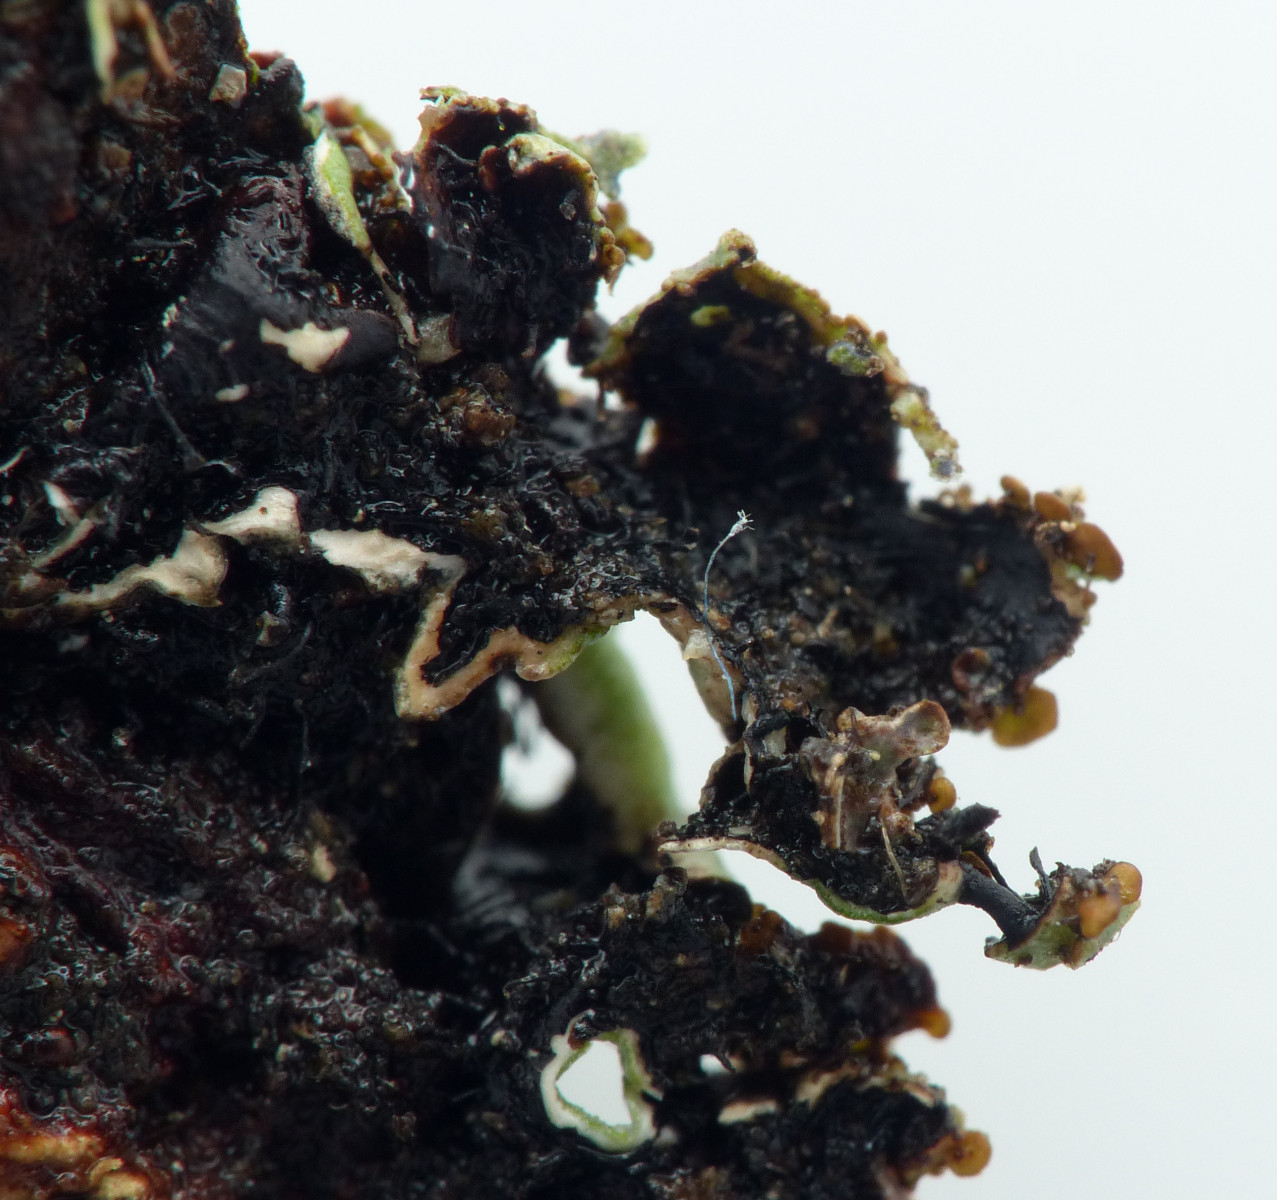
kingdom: Fungi
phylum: Ascomycota
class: Lecanoromycetes
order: Lecanorales
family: Parmeliaceae
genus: Parmelia
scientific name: Parmelia
